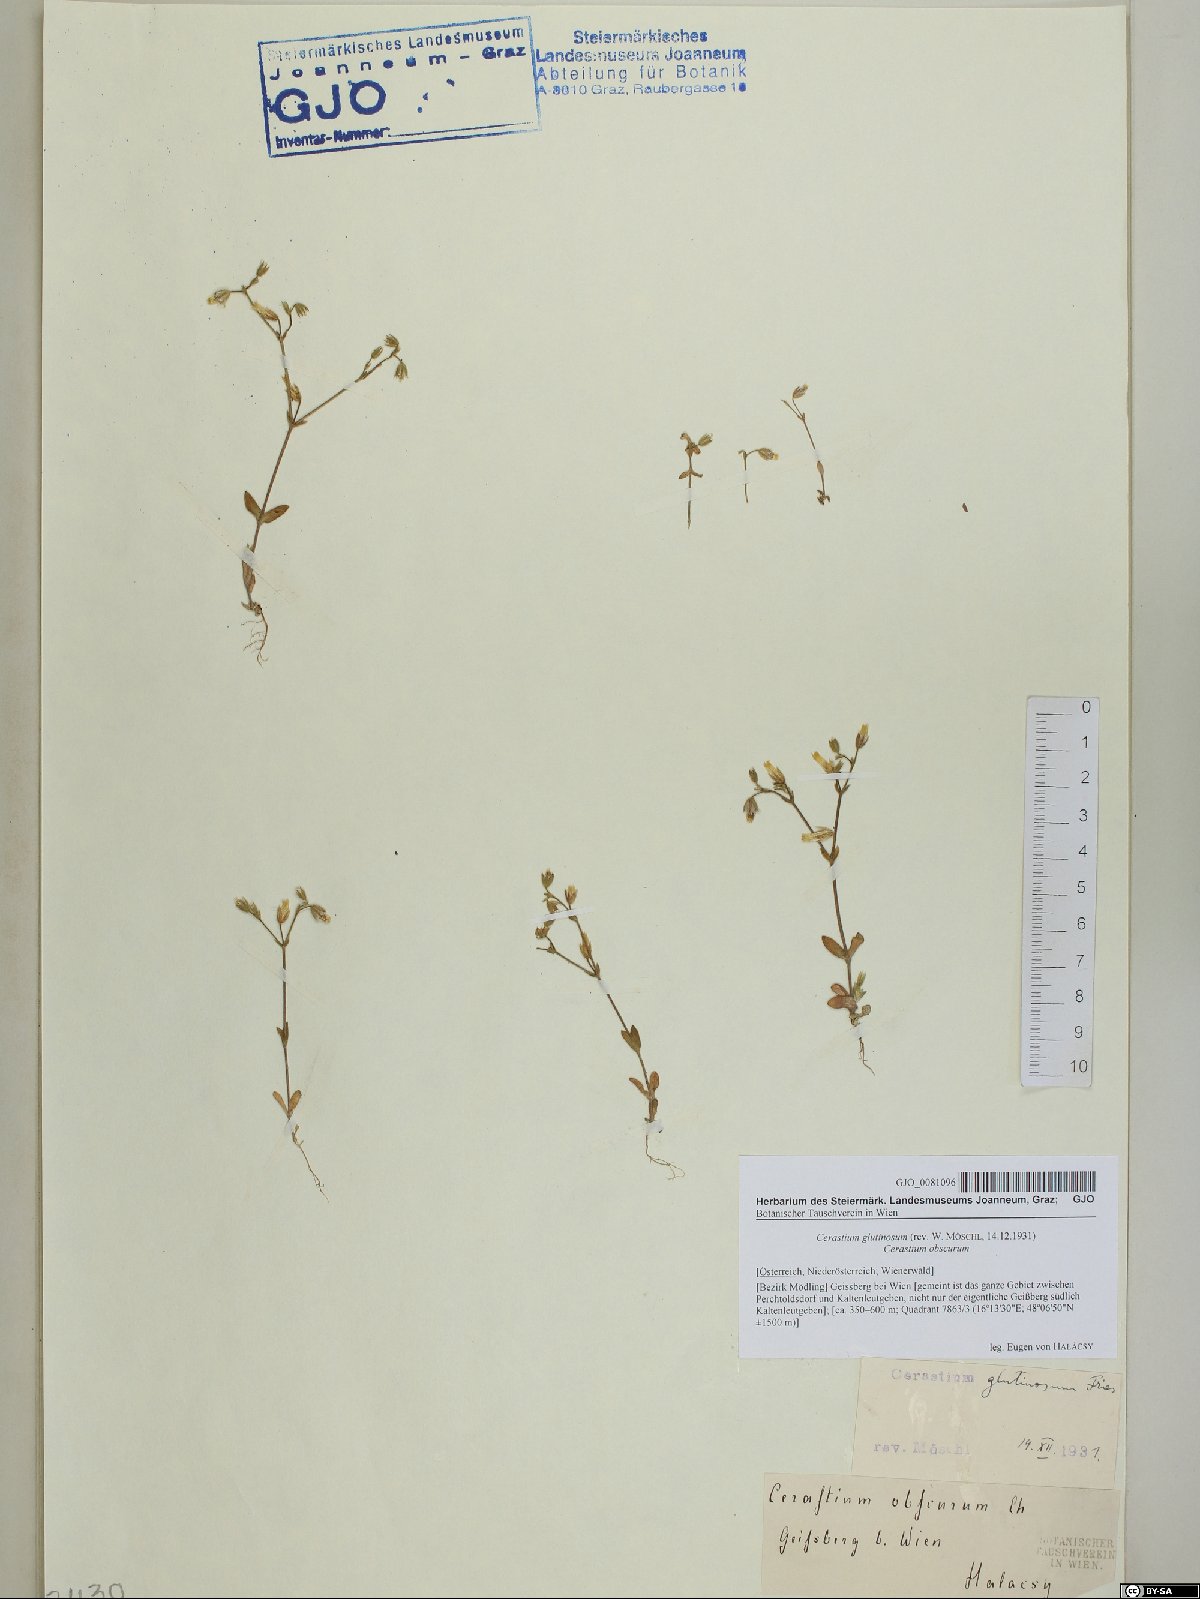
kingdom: Plantae
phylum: Tracheophyta
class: Magnoliopsida
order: Caryophyllales
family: Caryophyllaceae
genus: Cerastium
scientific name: Cerastium glutinosum
